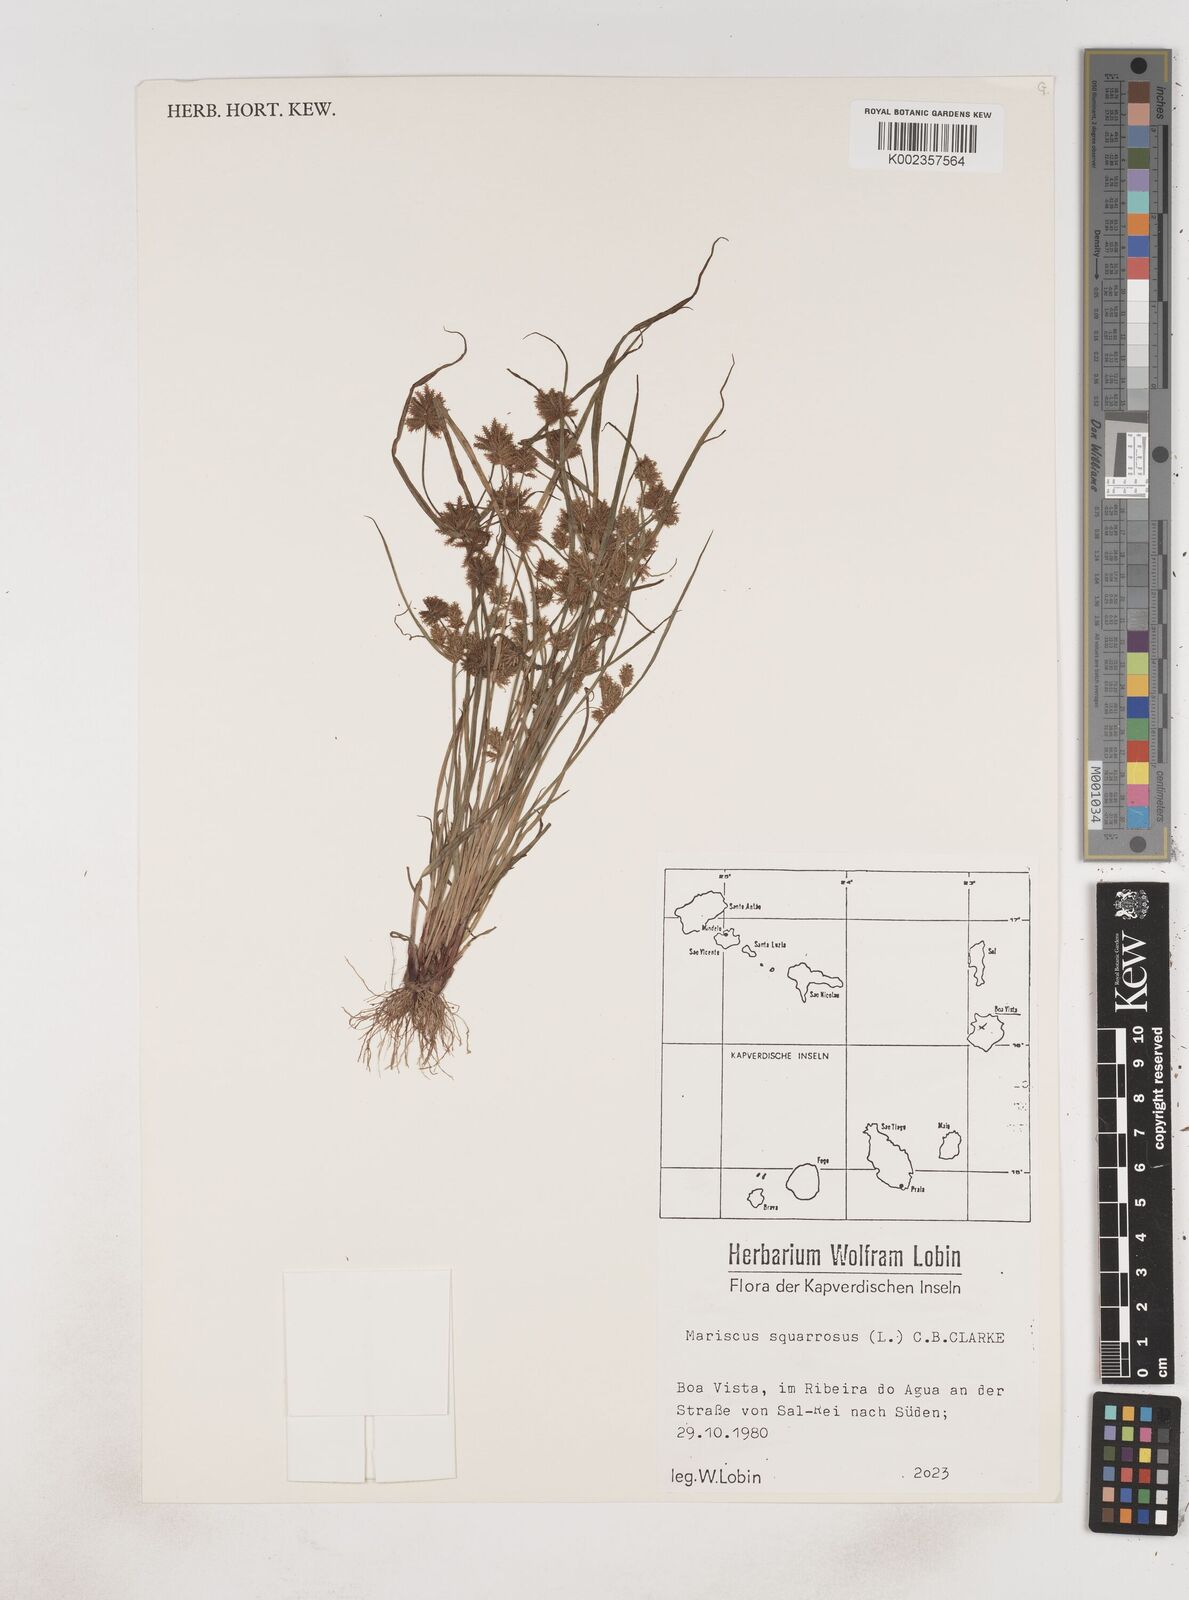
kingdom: Plantae
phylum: Tracheophyta
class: Liliopsida
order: Poales
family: Cyperaceae
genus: Cyperus
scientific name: Cyperus squarrosus
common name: Awned cyperus
